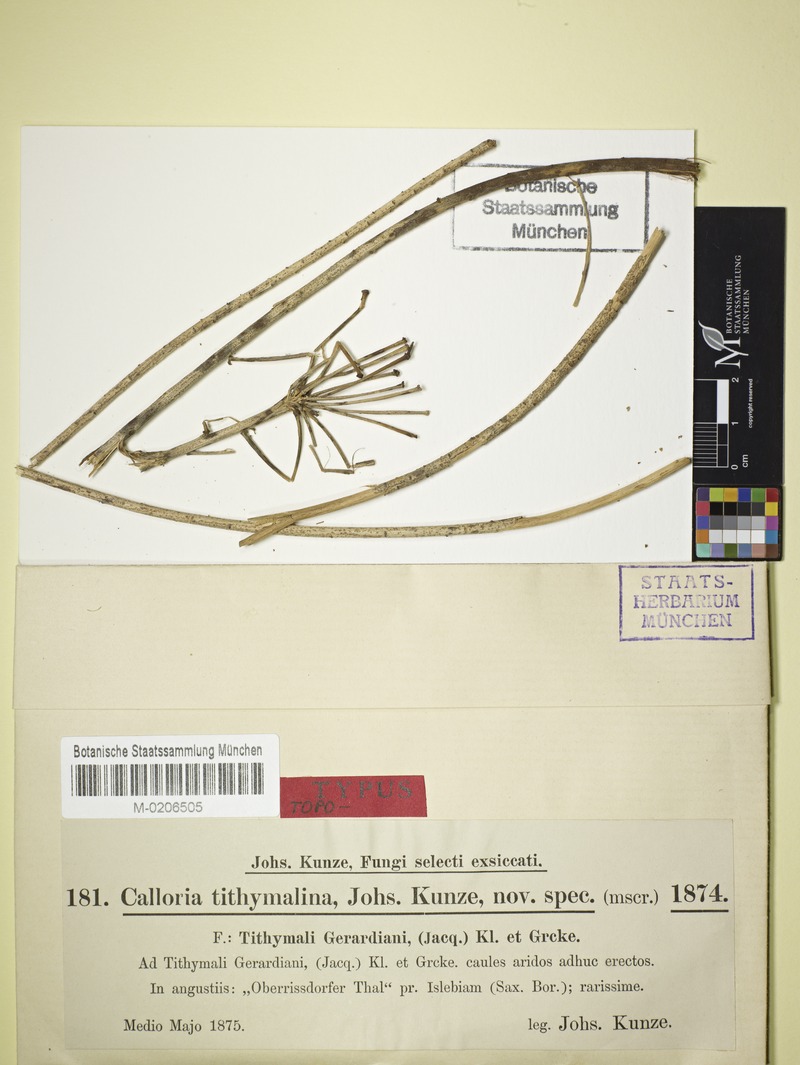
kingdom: Fungi
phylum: Ascomycota
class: Leotiomycetes
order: Helotiales
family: Calloriaceae
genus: Naeviopsis
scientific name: Naeviopsis tithymalina
